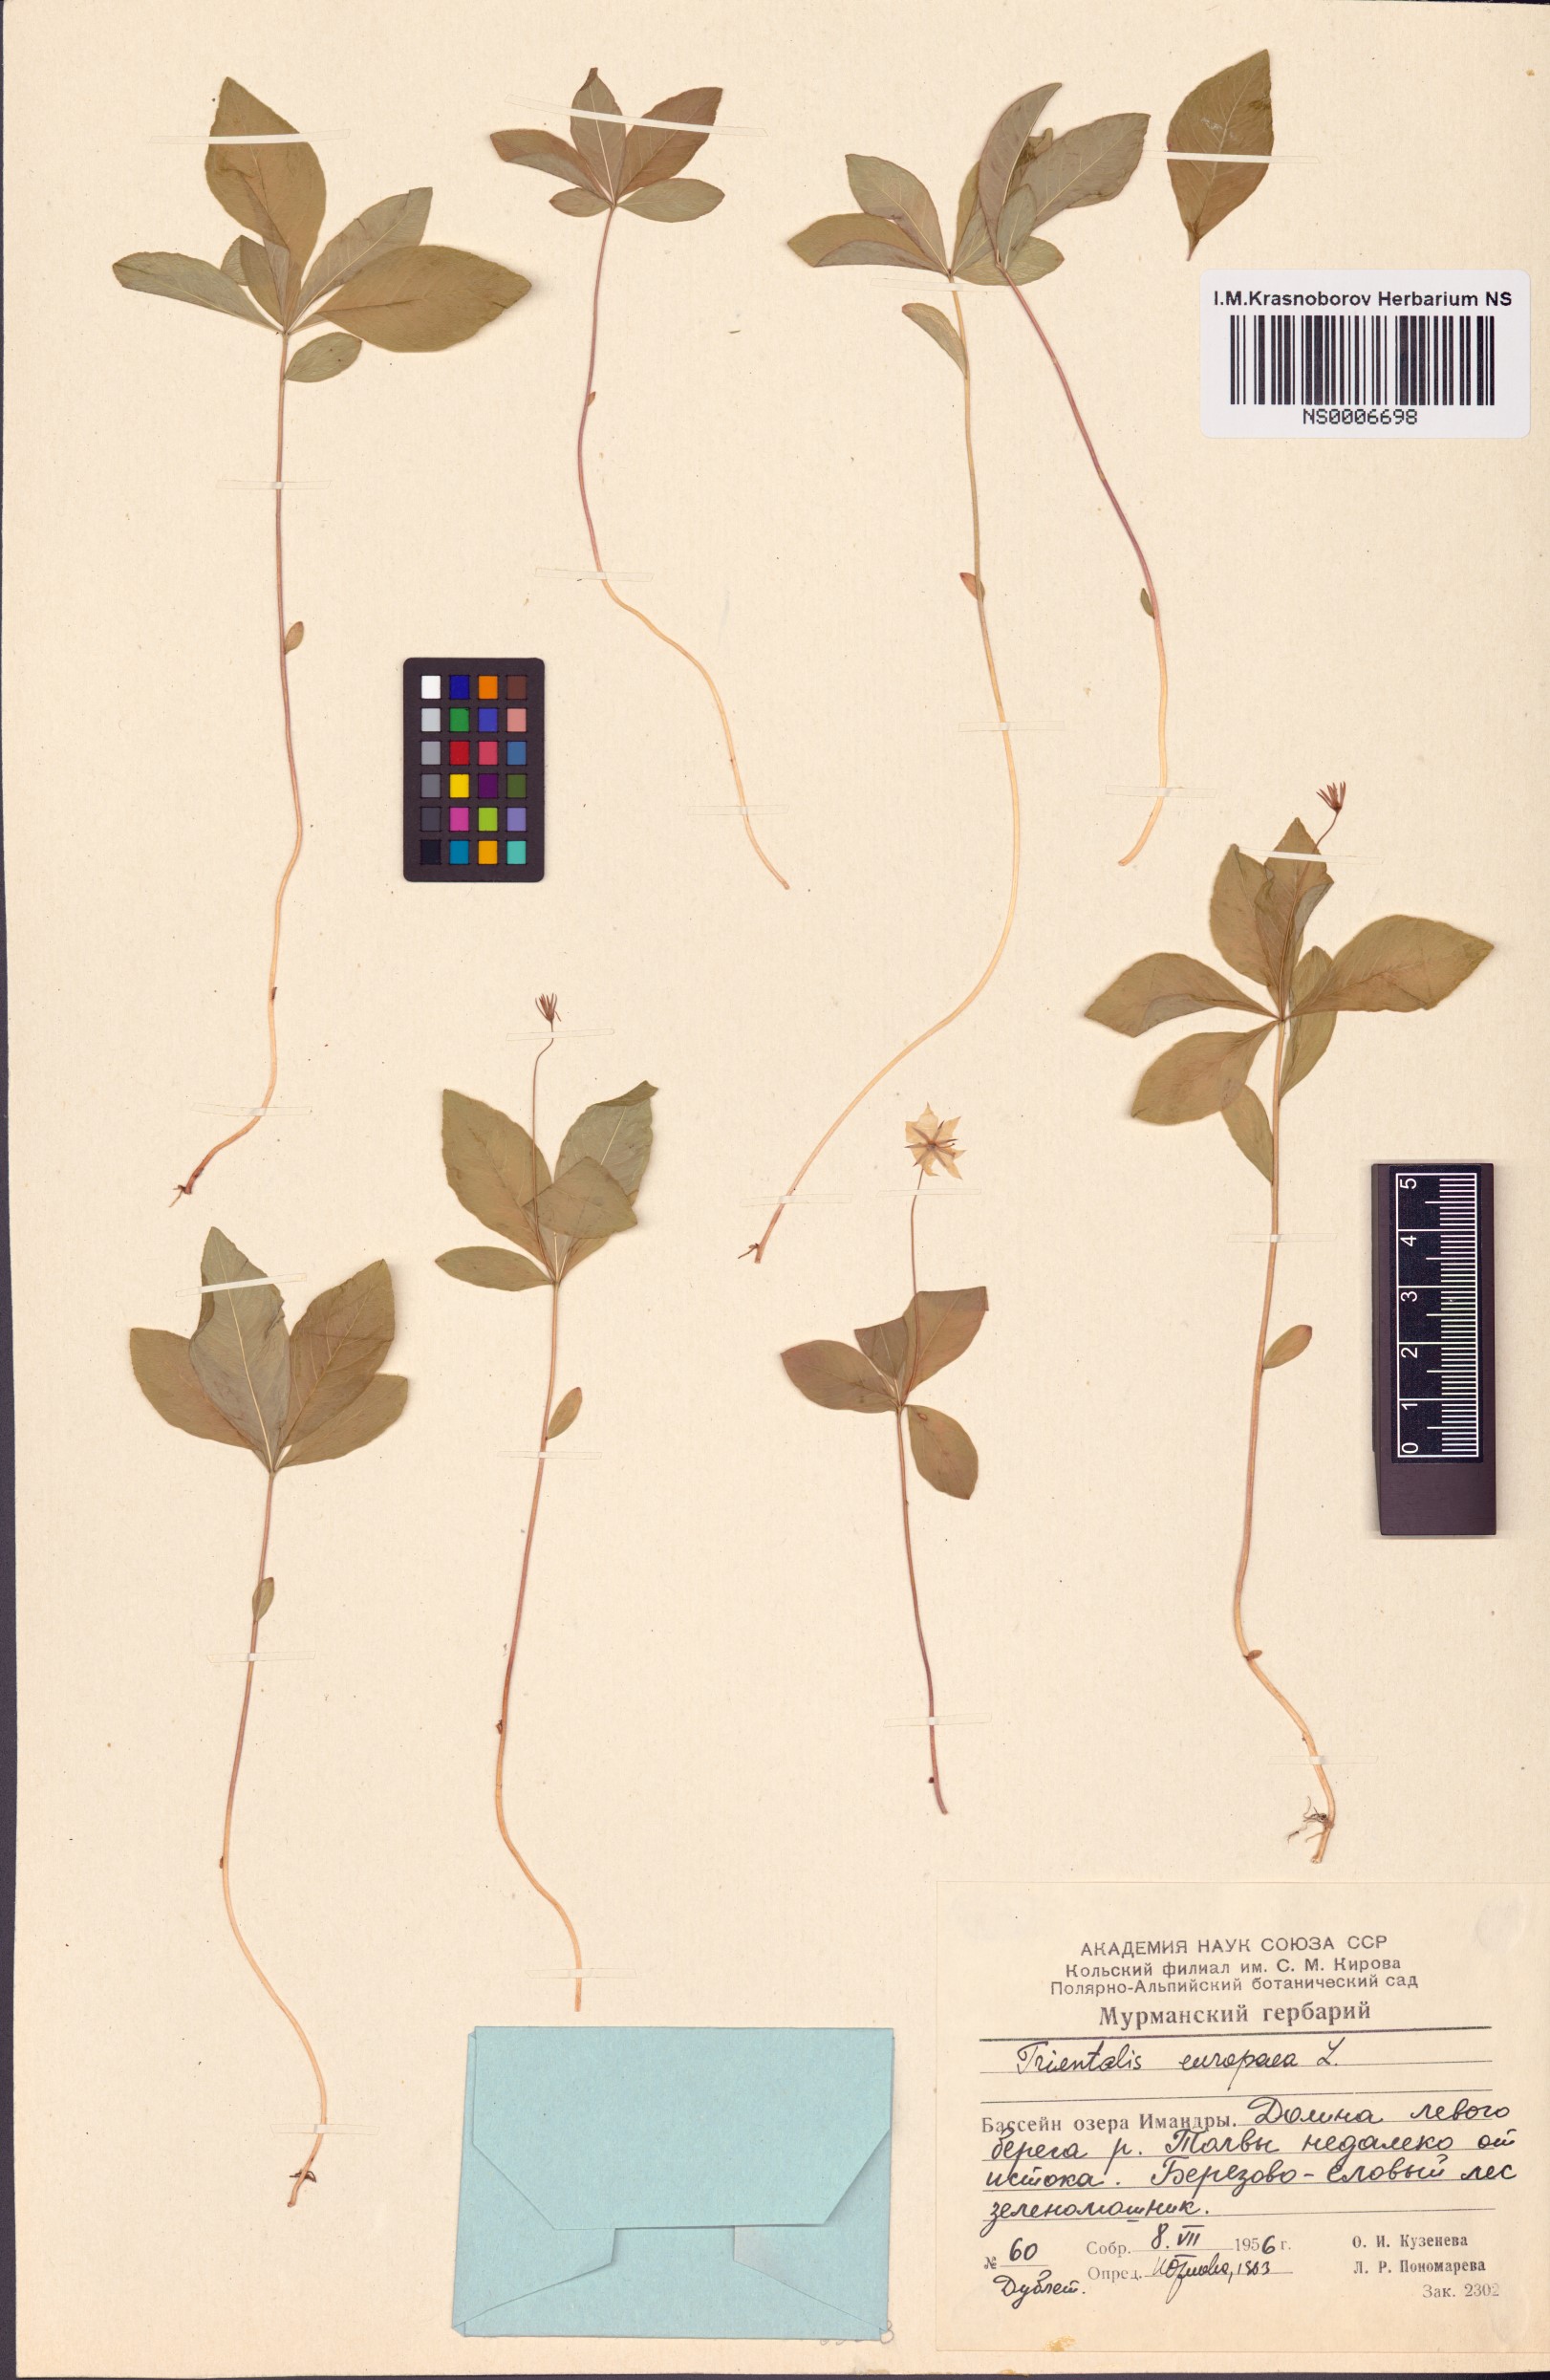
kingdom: Plantae
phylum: Tracheophyta
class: Magnoliopsida
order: Ericales
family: Primulaceae
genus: Lysimachia
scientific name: Lysimachia europaea
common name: Arctic starflower
